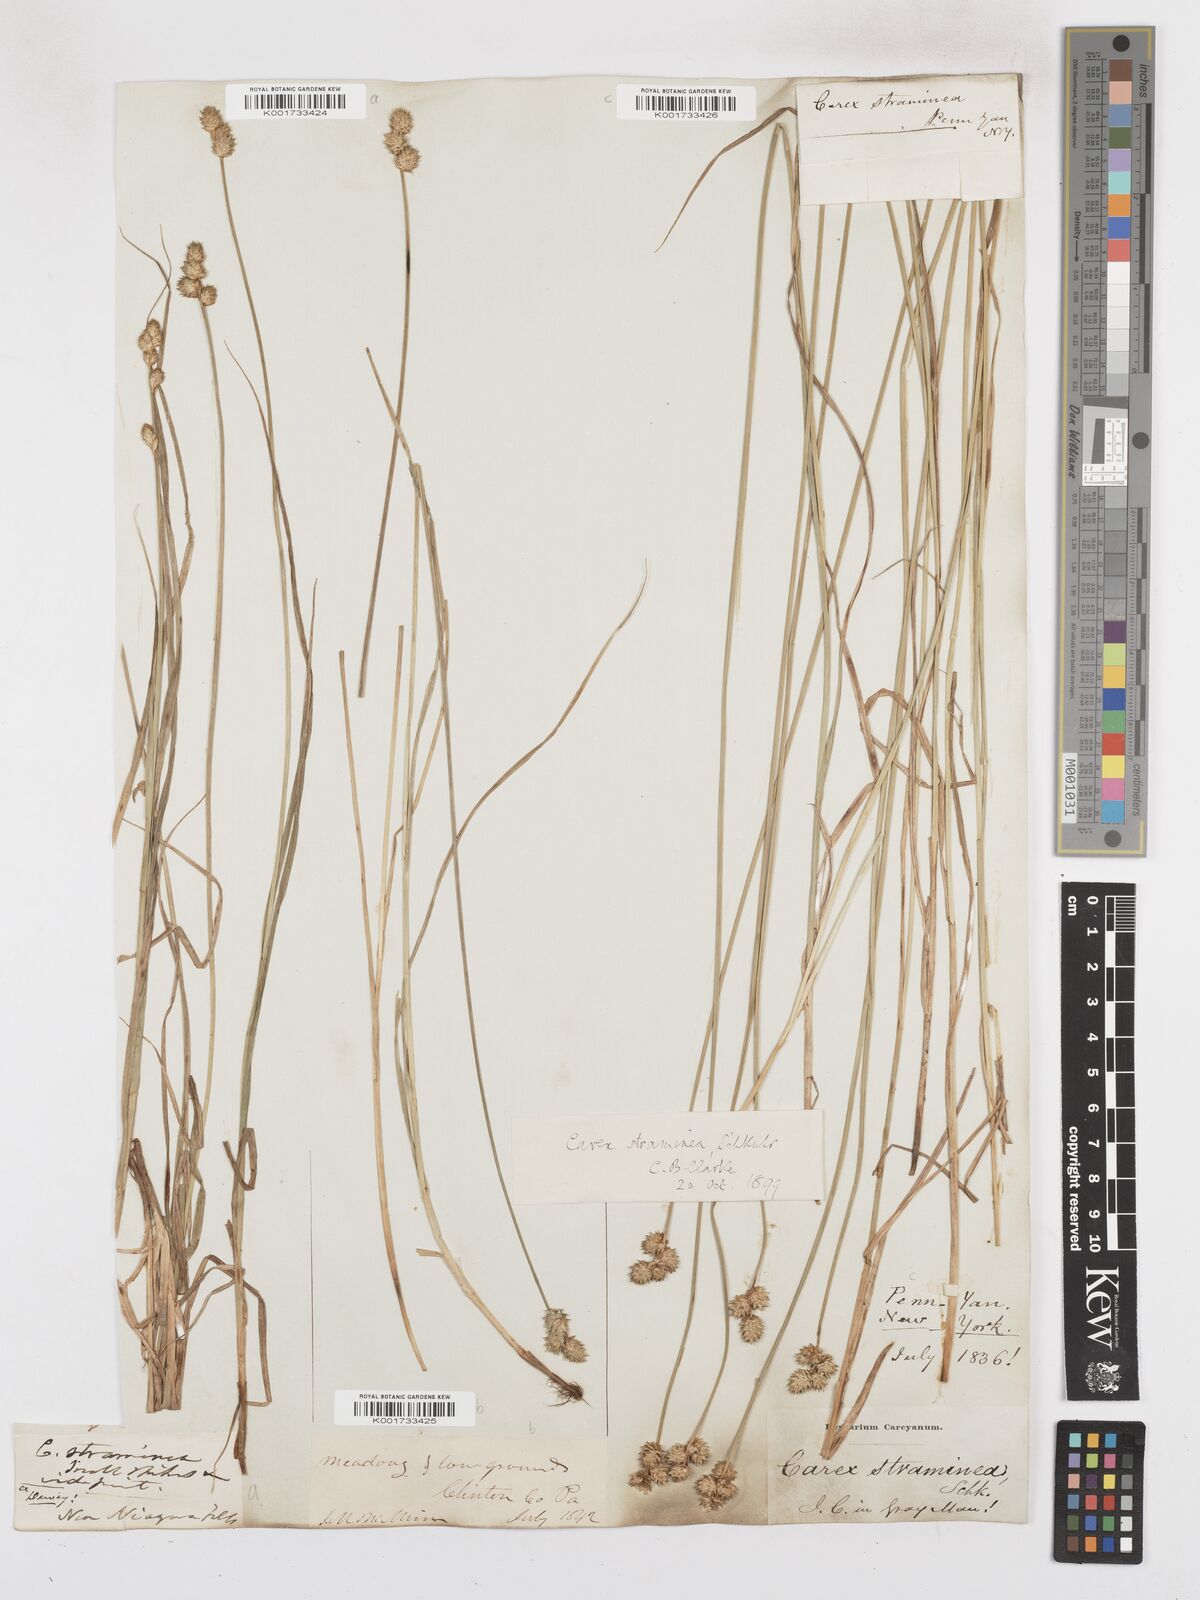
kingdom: Plantae
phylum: Tracheophyta
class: Liliopsida
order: Poales
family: Cyperaceae
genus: Carex
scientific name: Carex albolutescens
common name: Freenish white sedge
